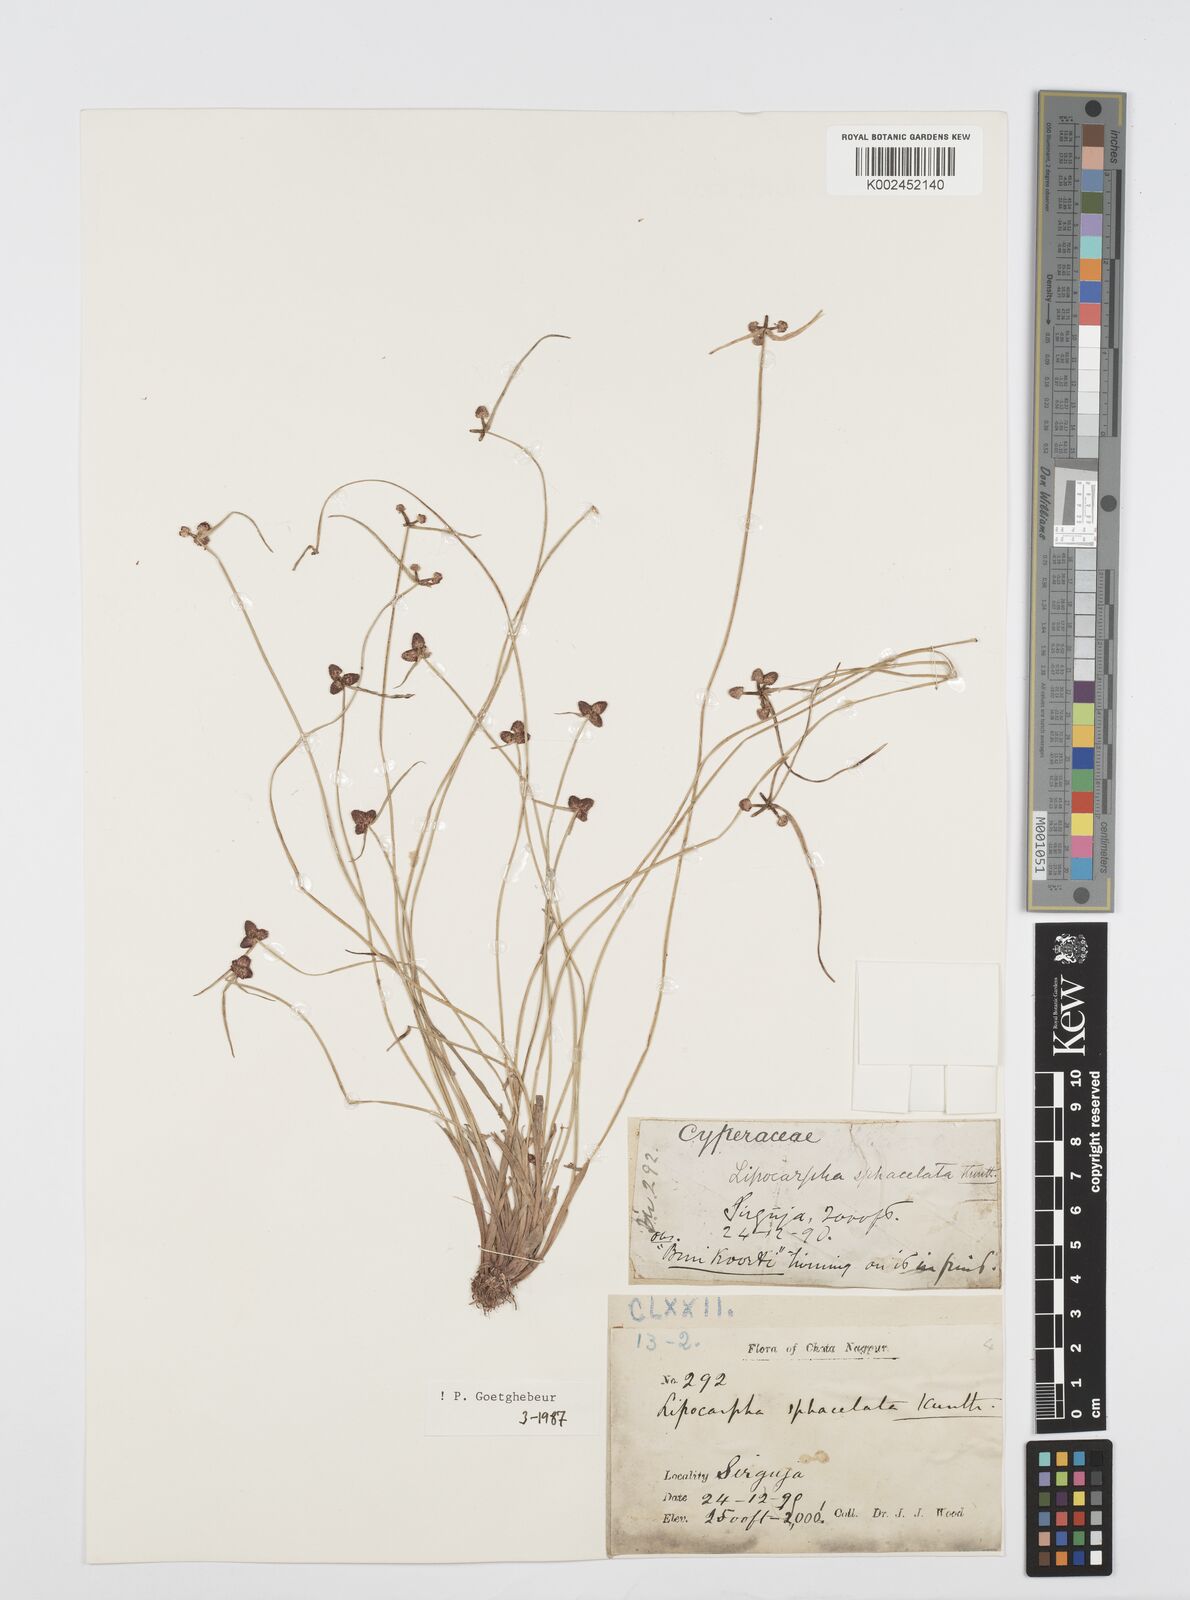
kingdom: Plantae
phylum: Tracheophyta
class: Liliopsida
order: Poales
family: Cyperaceae
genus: Cyperus
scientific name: Cyperus sphacelatus
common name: Roadside flatsedge
